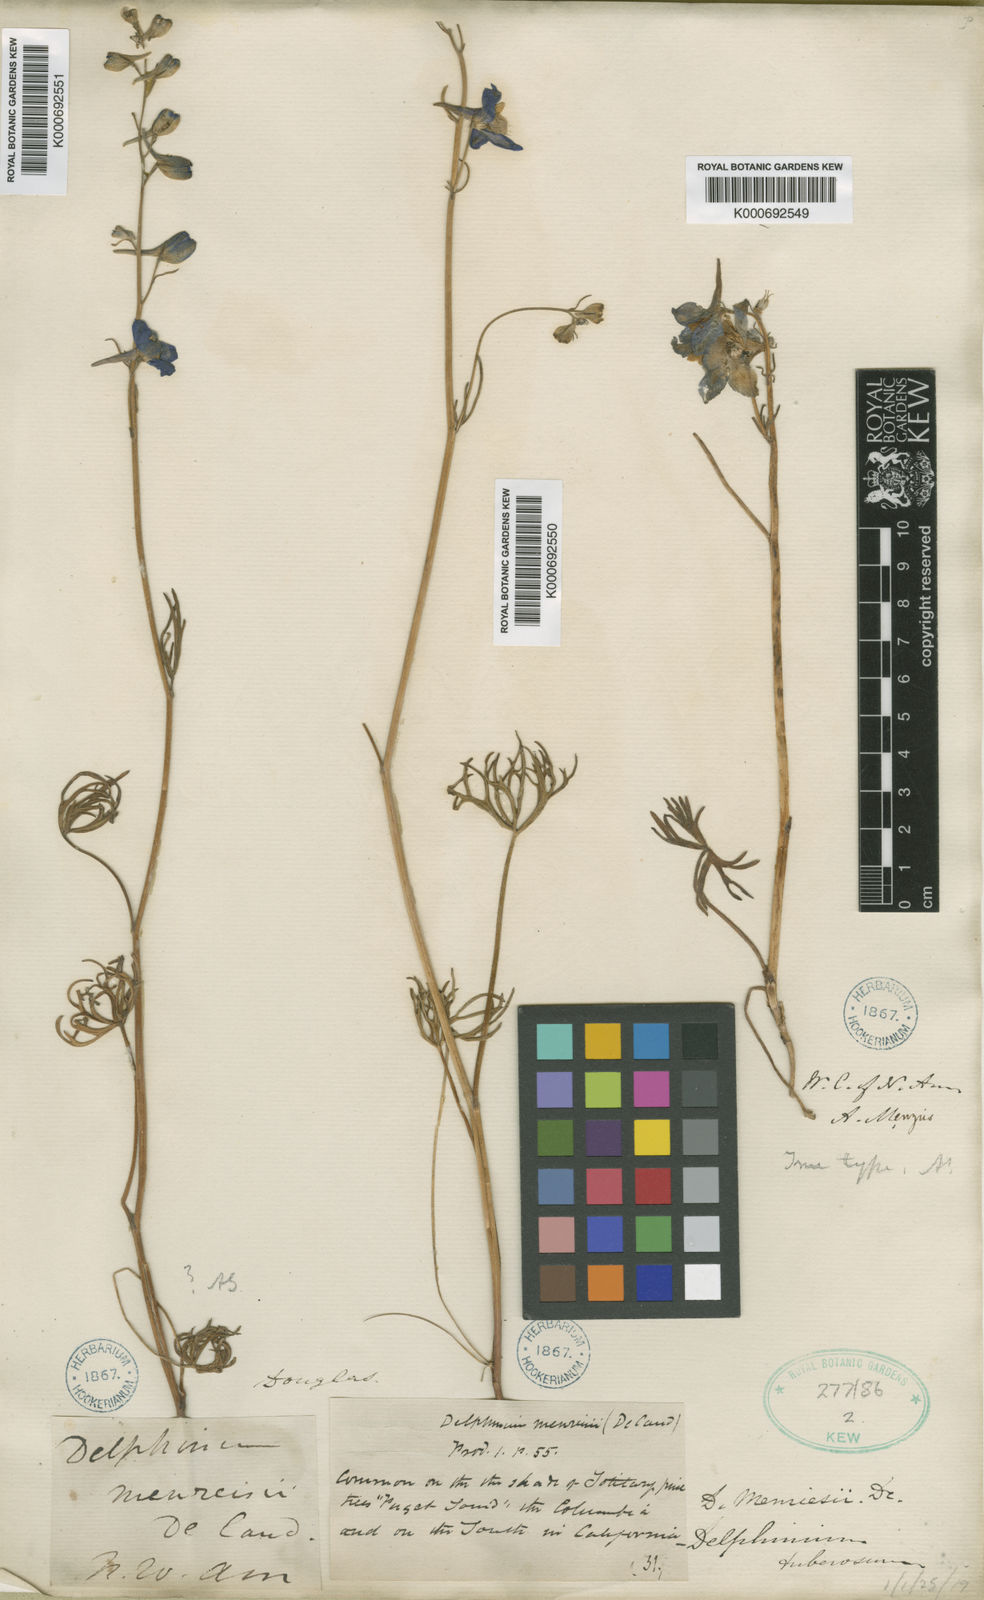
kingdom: Plantae
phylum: Tracheophyta
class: Magnoliopsida
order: Ranunculales
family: Ranunculaceae
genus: Delphinium
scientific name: Delphinium menziesii
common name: Menzies's larkspur
